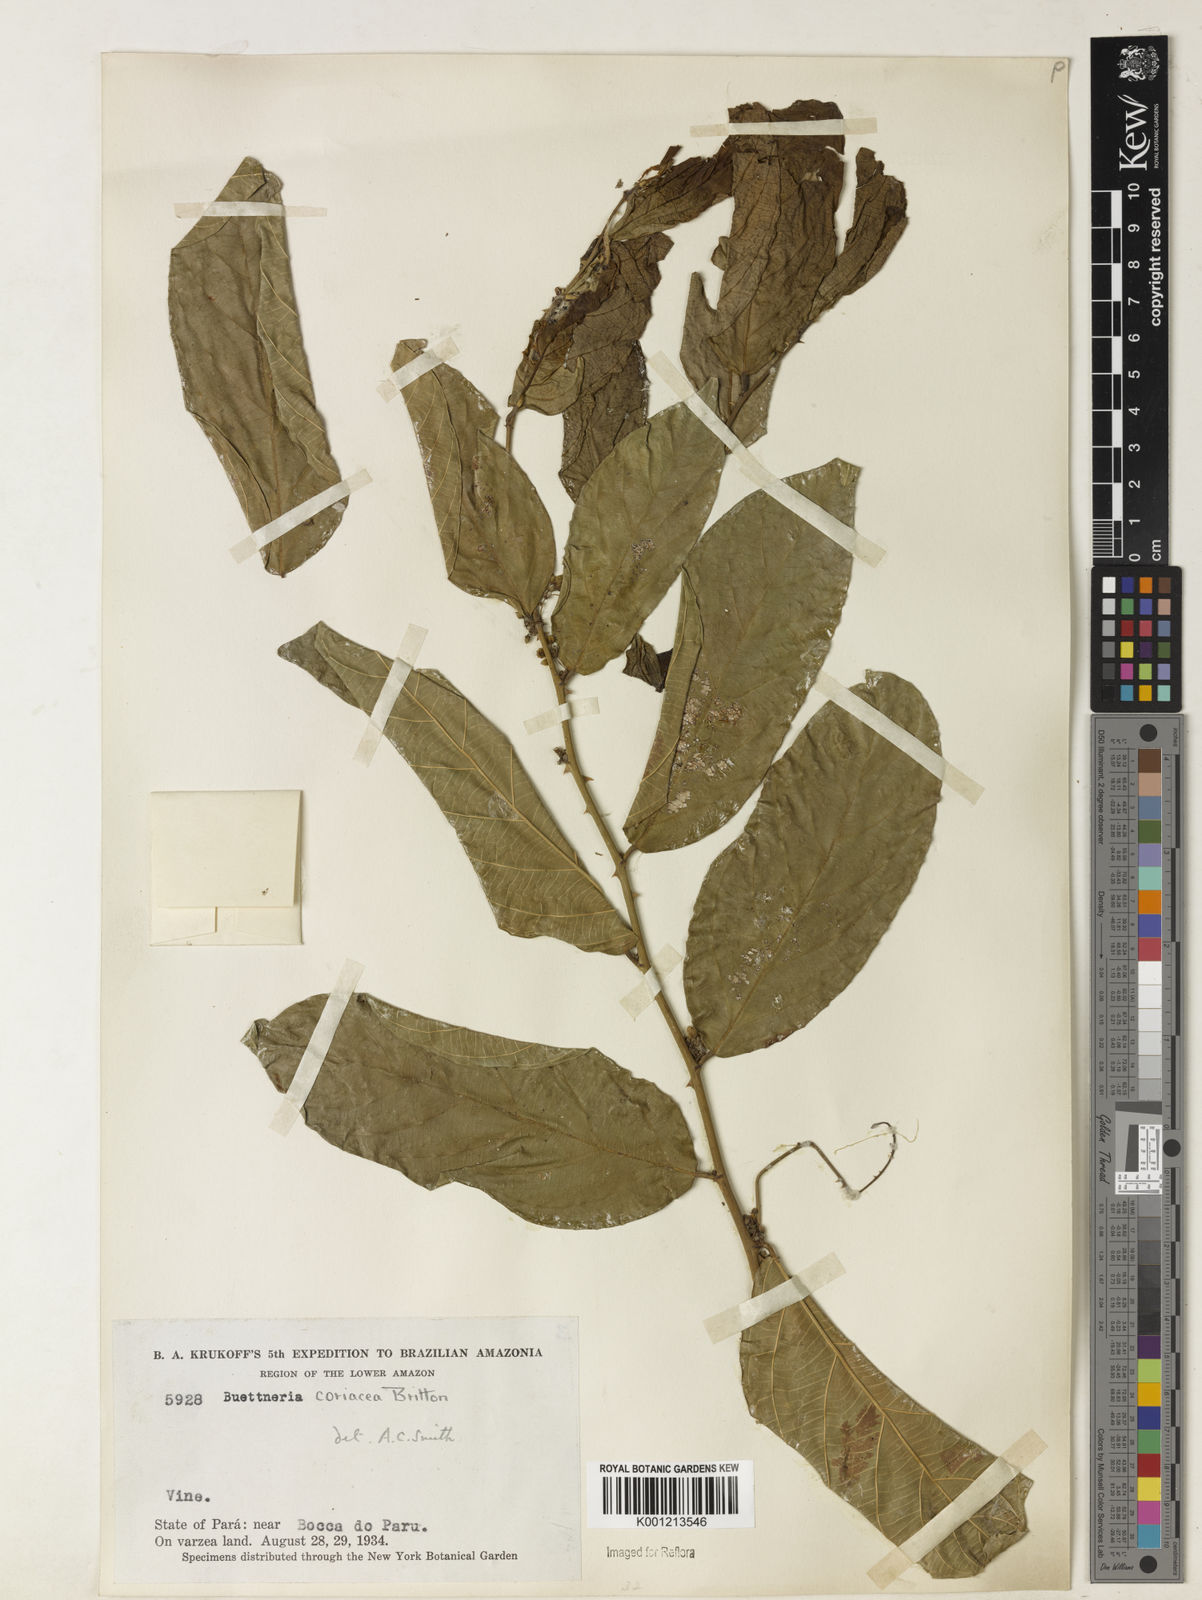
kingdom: Plantae
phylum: Tracheophyta
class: Magnoliopsida
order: Malvales
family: Malvaceae
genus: Byttneria
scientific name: Byttneria coriacea
